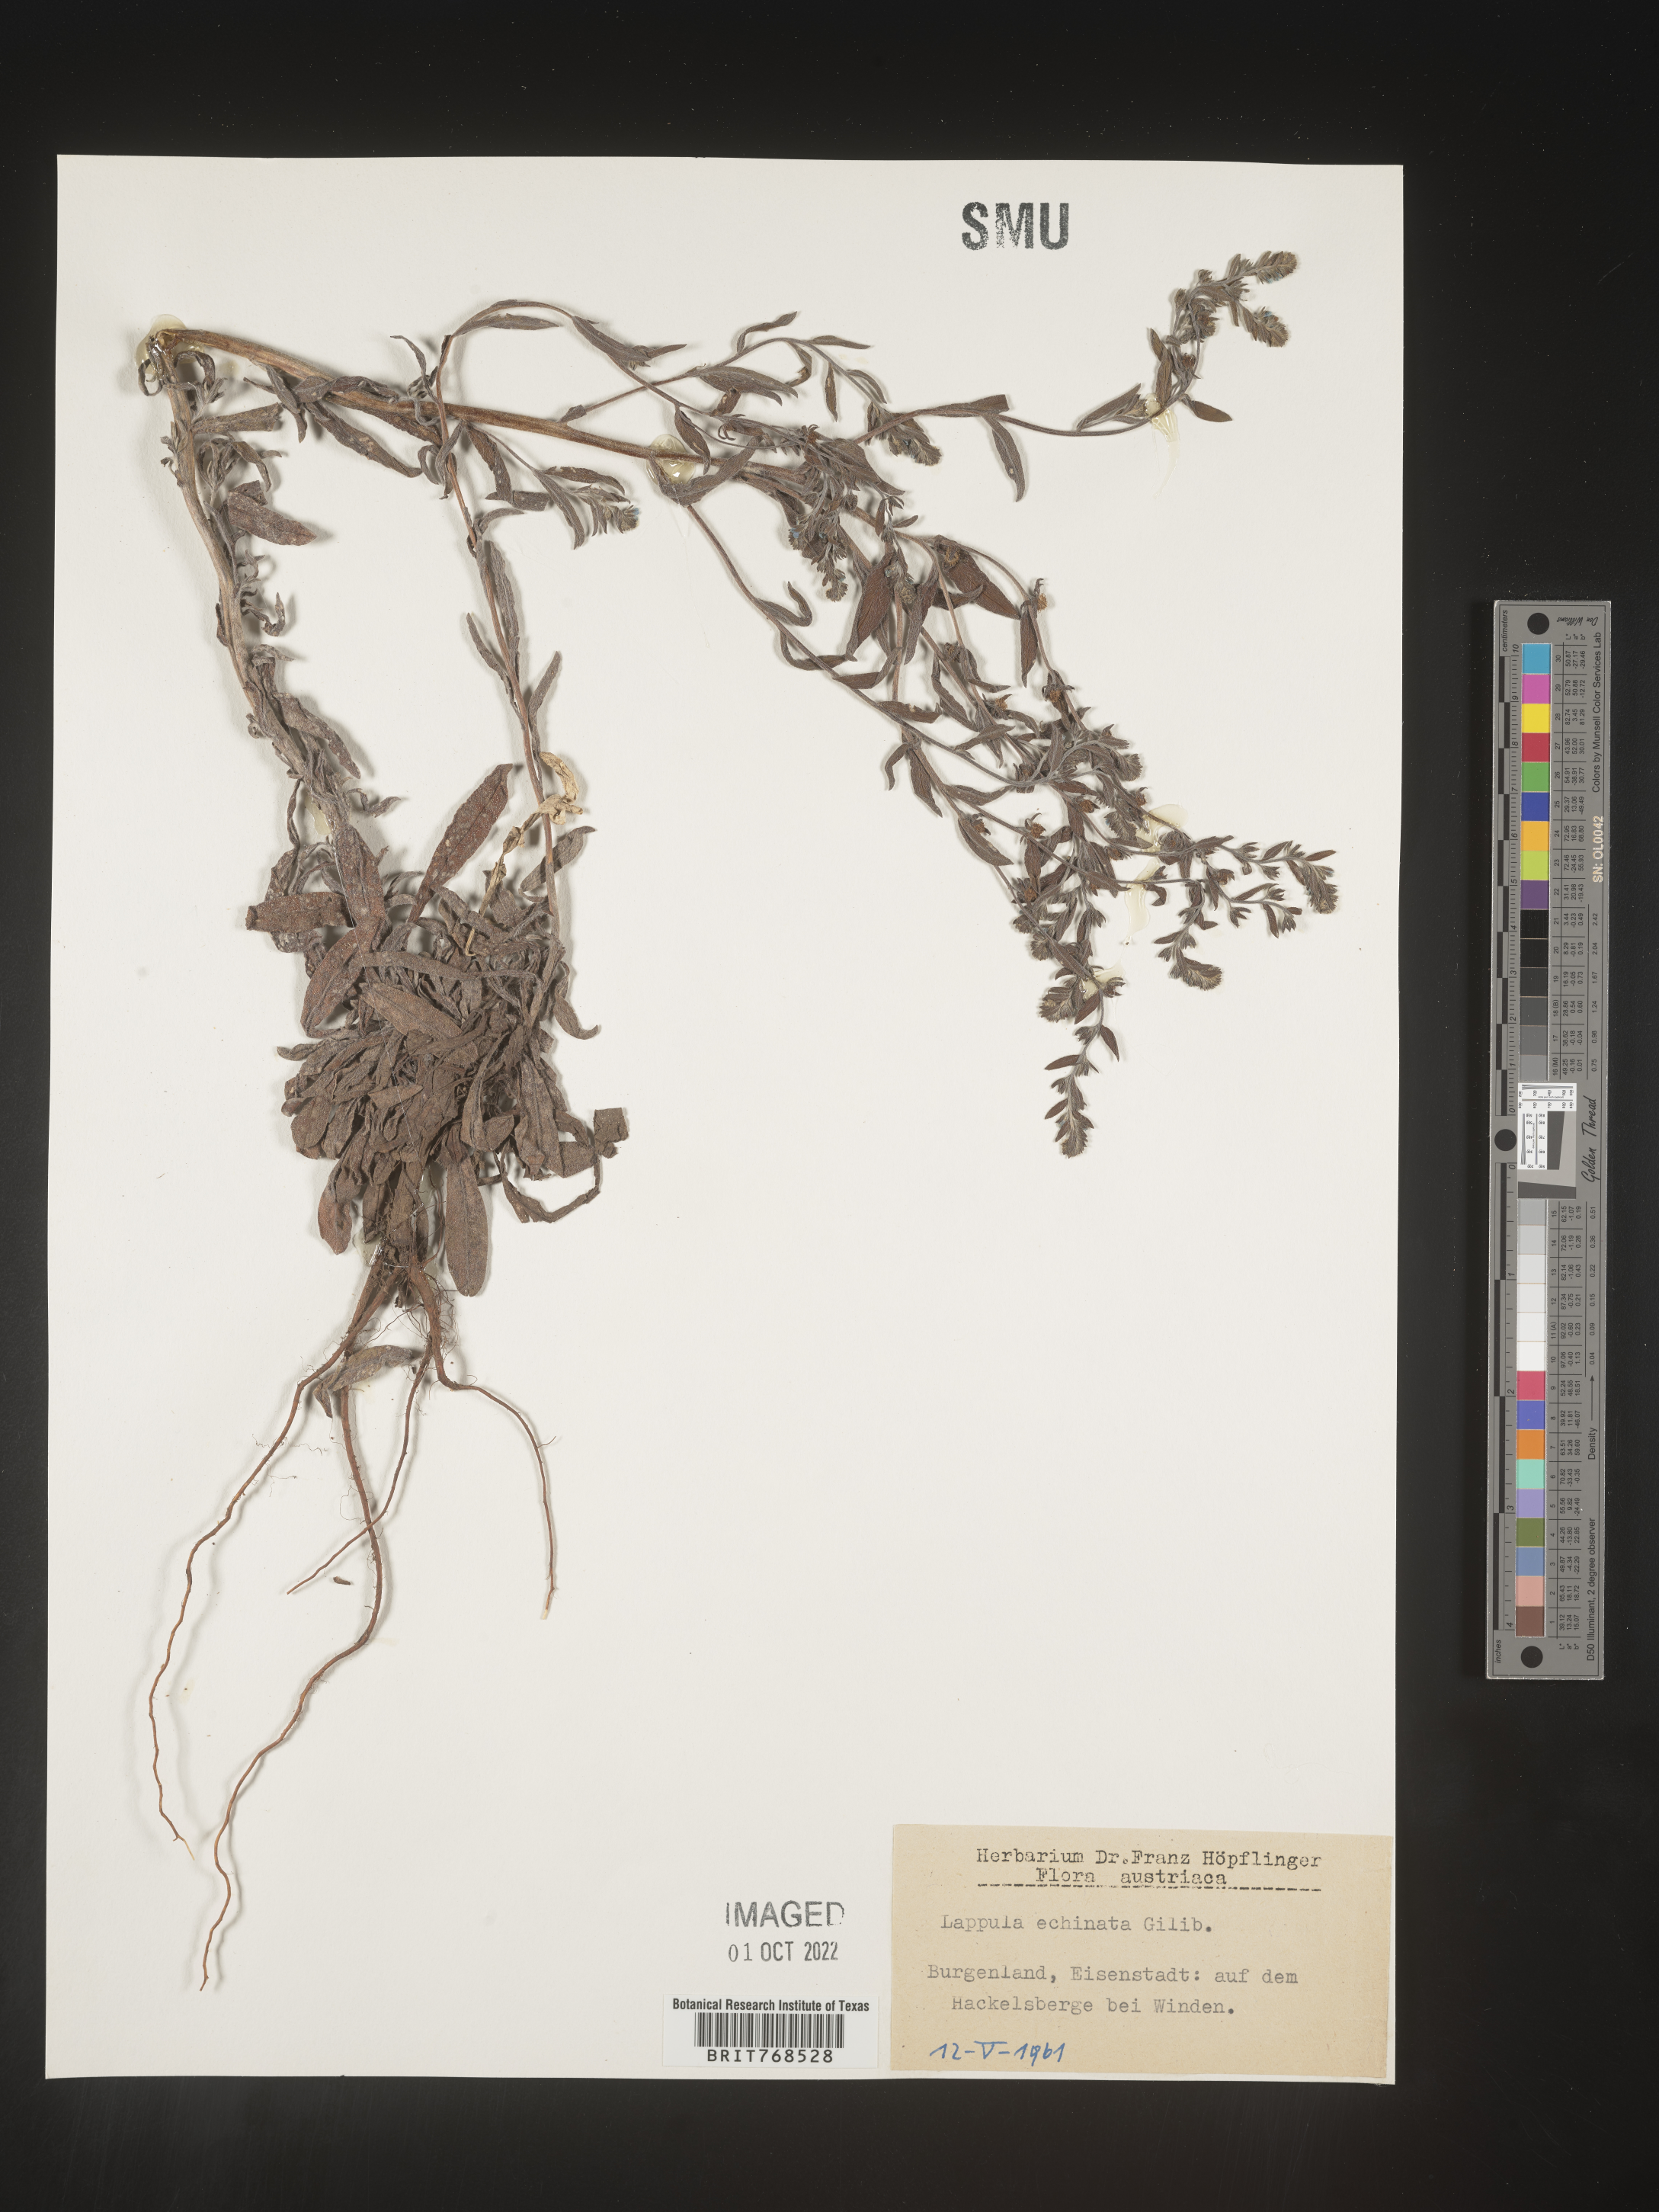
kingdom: Plantae
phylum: Tracheophyta
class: Magnoliopsida
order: Boraginales
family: Boraginaceae
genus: Lappula
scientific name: Lappula
